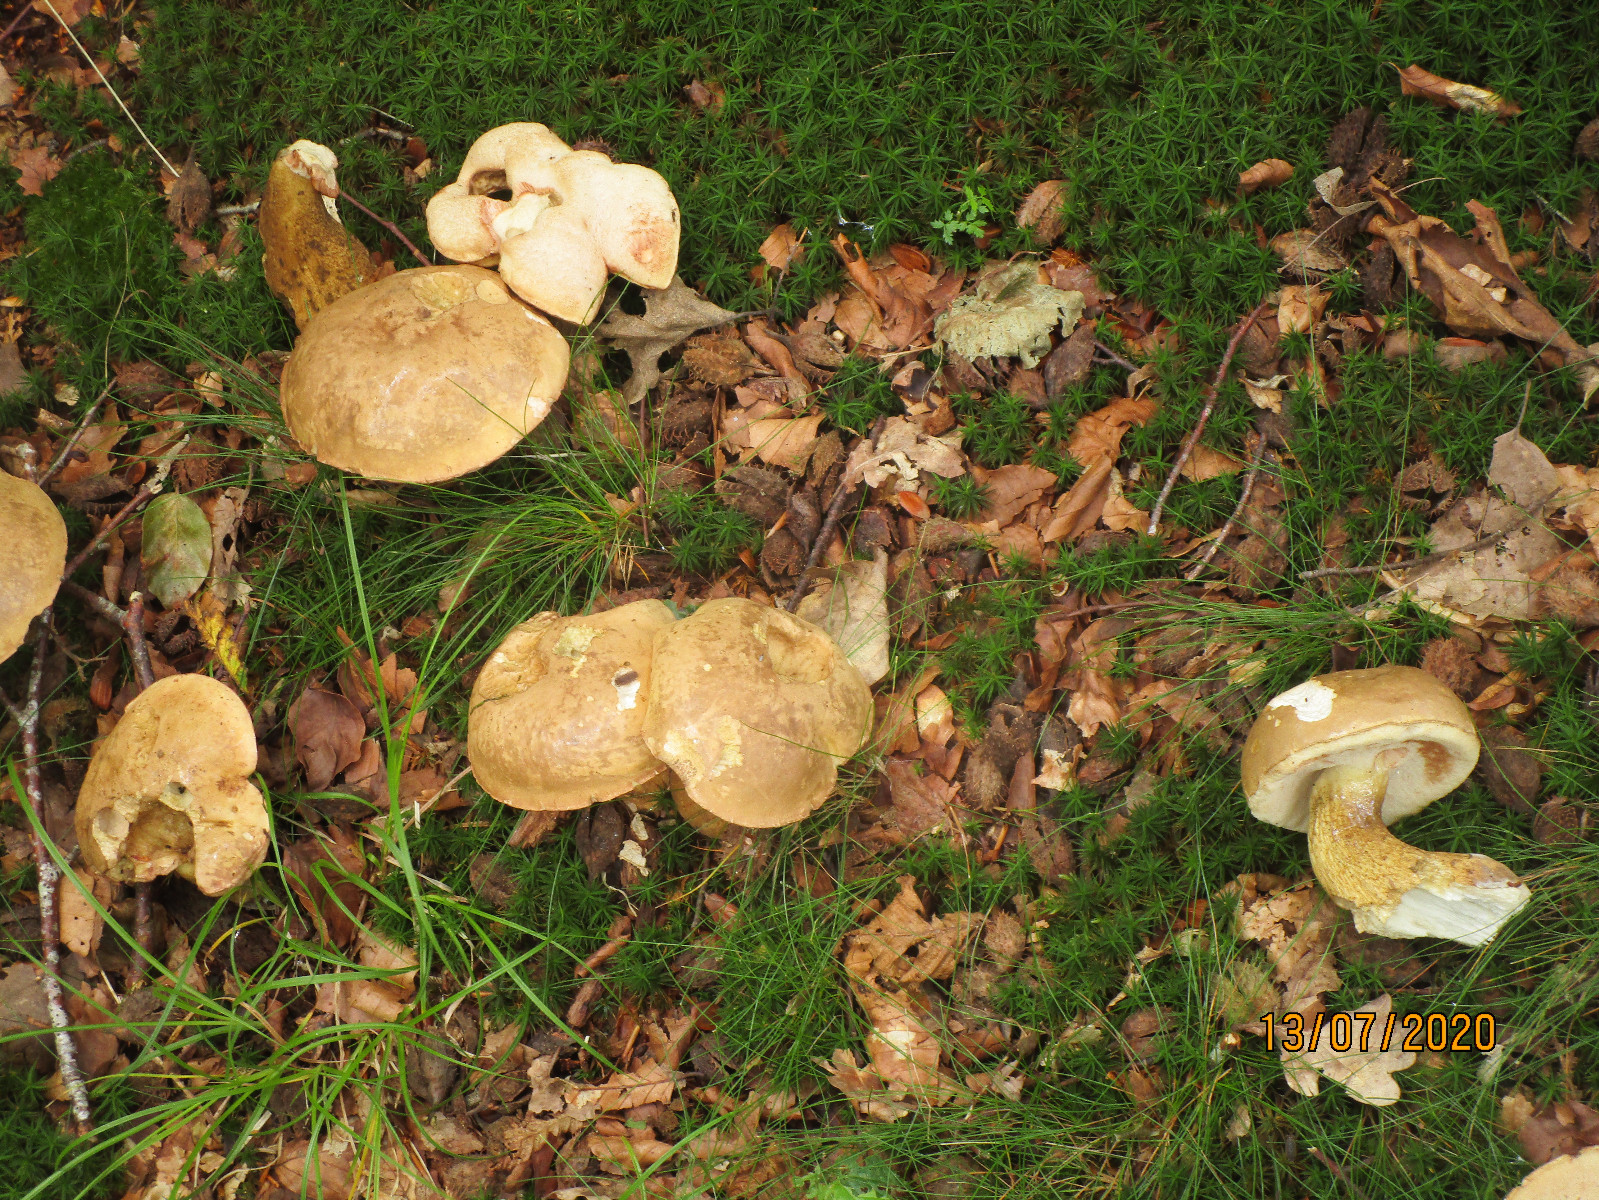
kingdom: Fungi
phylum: Basidiomycota
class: Agaricomycetes
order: Boletales
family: Boletaceae
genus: Tylopilus
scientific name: Tylopilus felleus
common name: galderørhat
